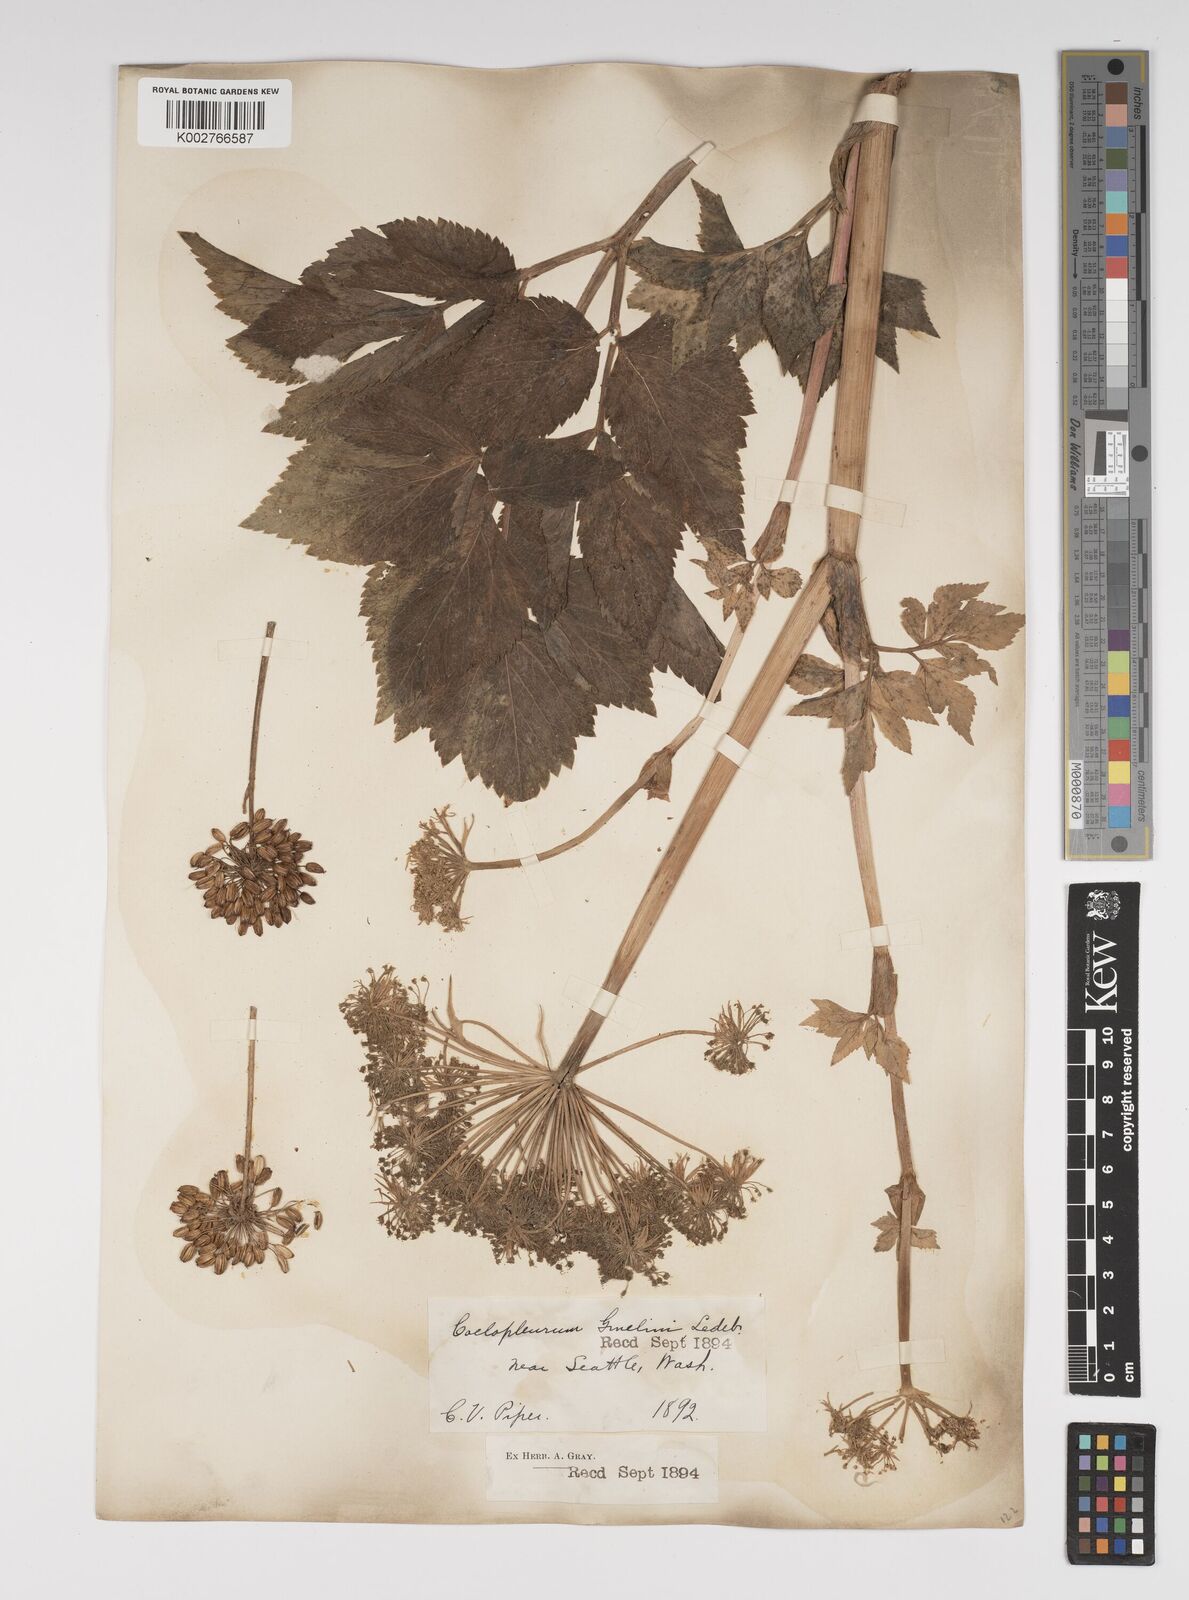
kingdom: Plantae
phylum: Tracheophyta
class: Magnoliopsida
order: Apiales
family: Apiaceae
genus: Angelica
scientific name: Angelica lucida
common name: Seabeach angelica
